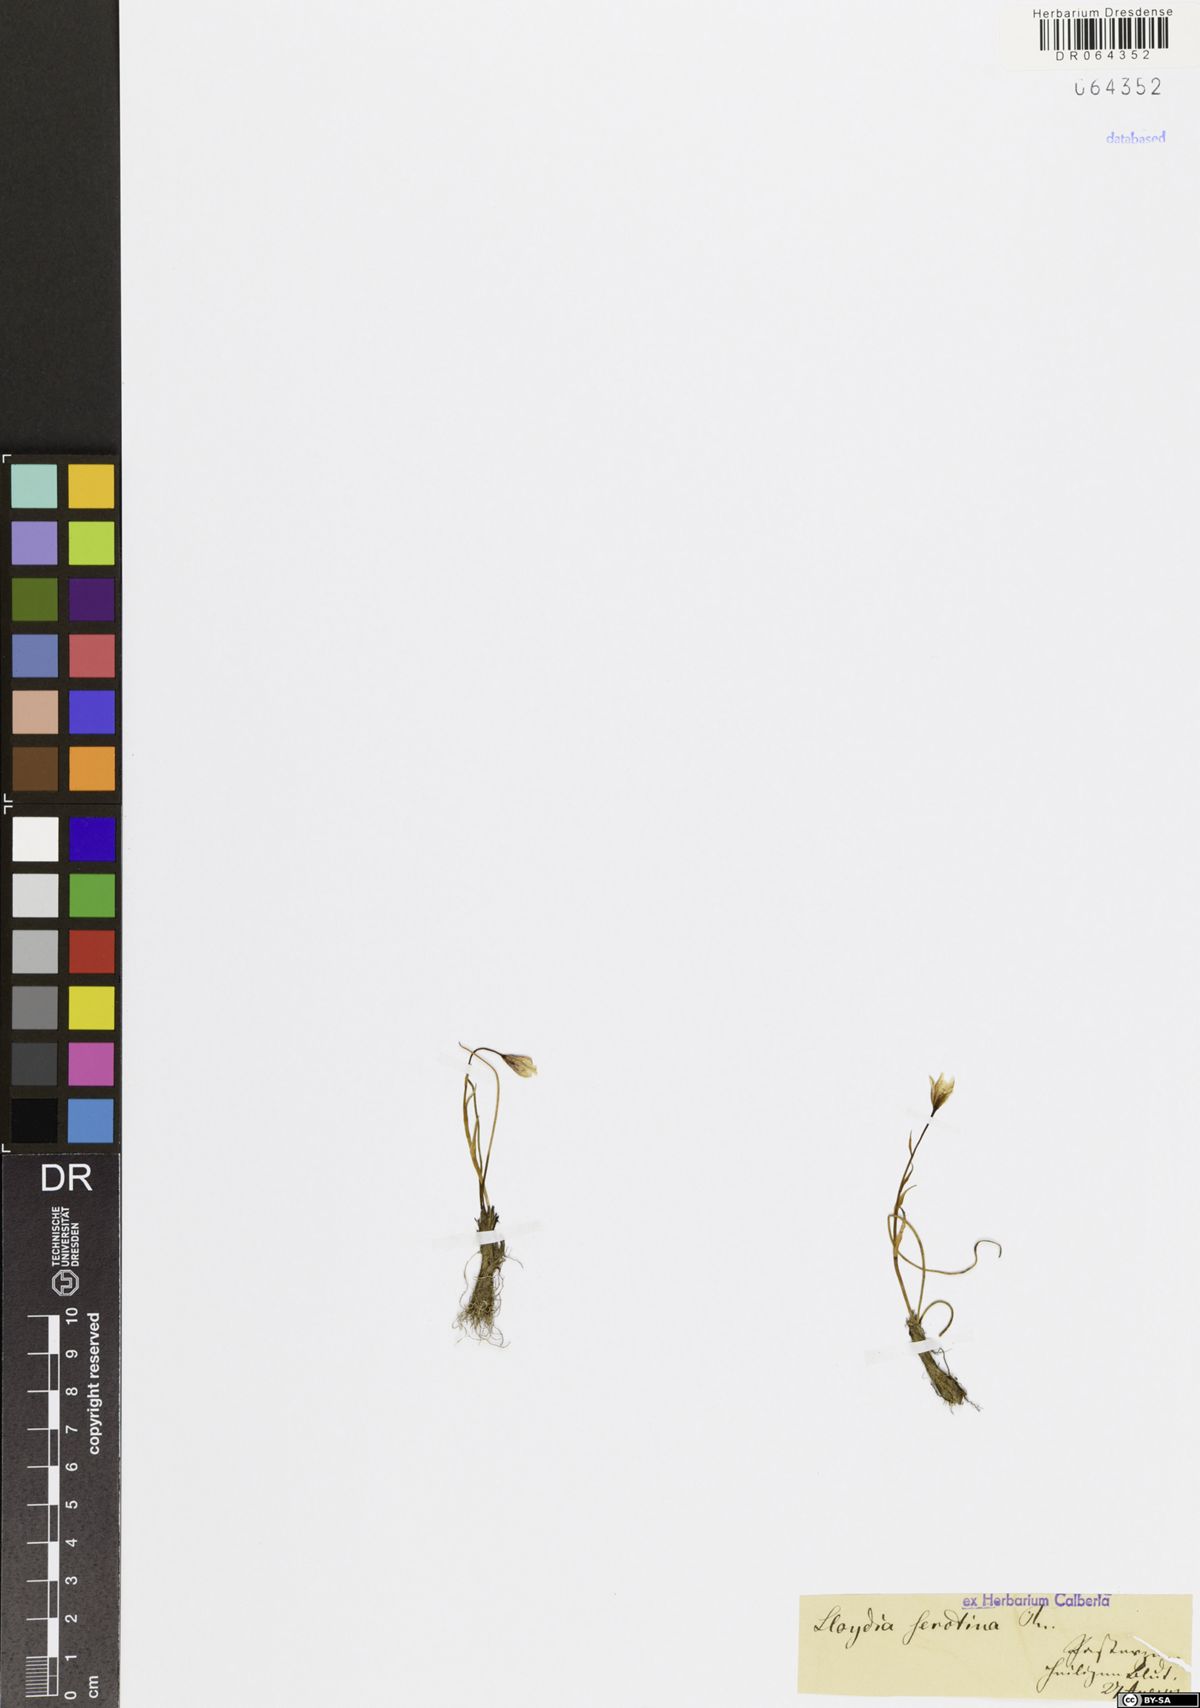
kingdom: Plantae
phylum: Tracheophyta
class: Liliopsida
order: Liliales
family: Liliaceae
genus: Gagea
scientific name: Gagea serotina
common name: Snowdon lily
